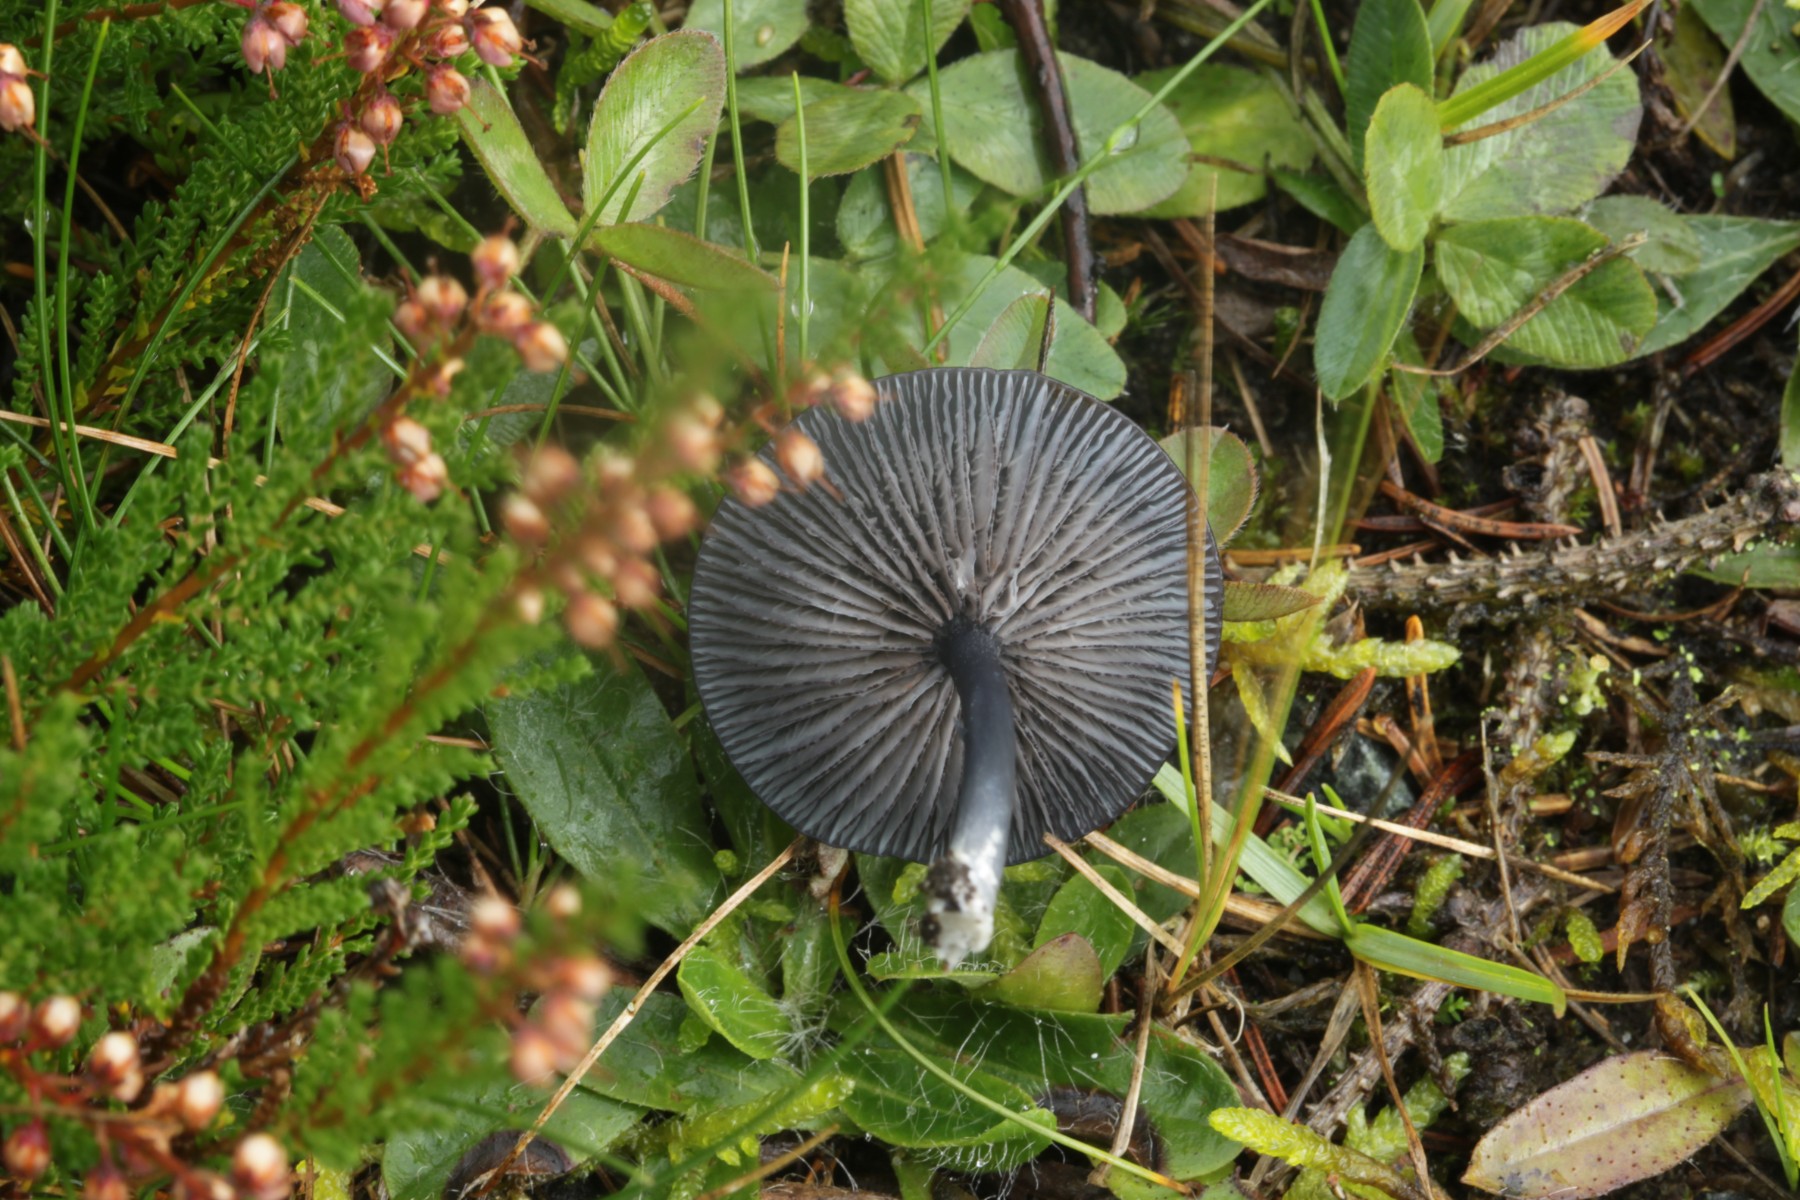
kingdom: Fungi
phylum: Basidiomycota
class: Agaricomycetes
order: Agaricales
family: Entolomataceae
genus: Entoloma
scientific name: Entoloma serrulatum
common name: savbladet rødblad
